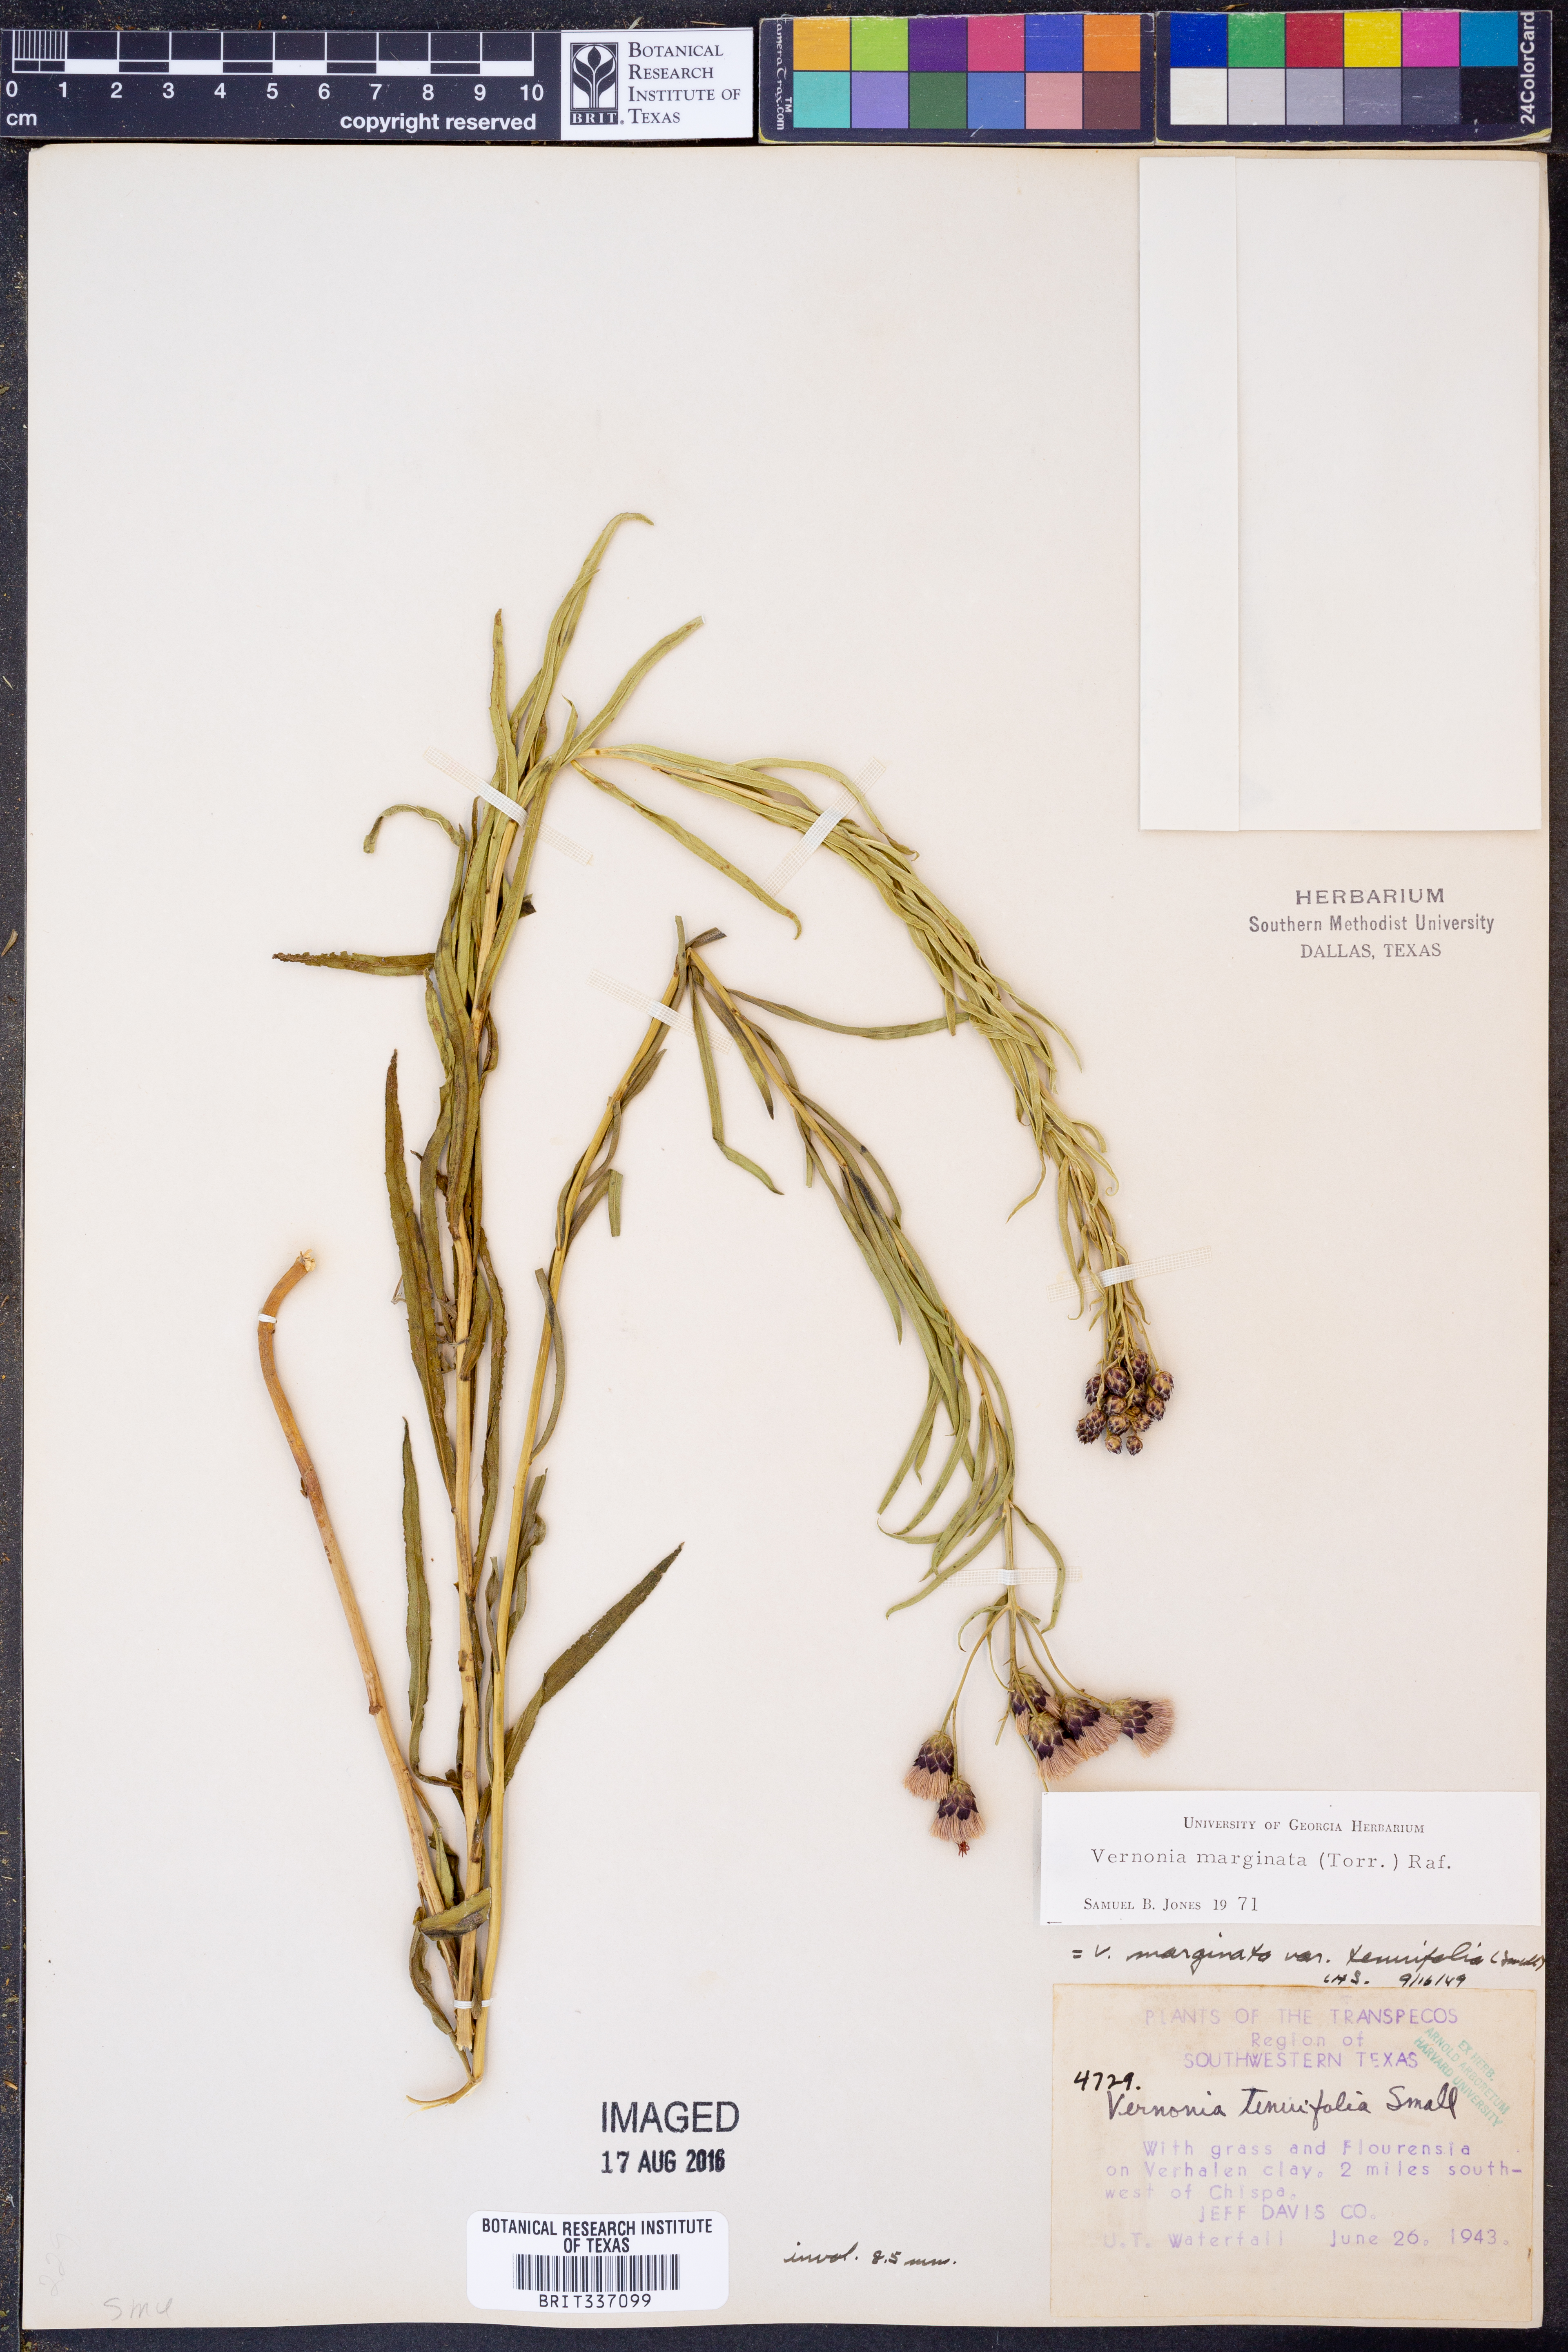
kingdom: Plantae
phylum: Tracheophyta
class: Magnoliopsida
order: Asterales
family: Asteraceae
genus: Vernonia
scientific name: Vernonia marginata
